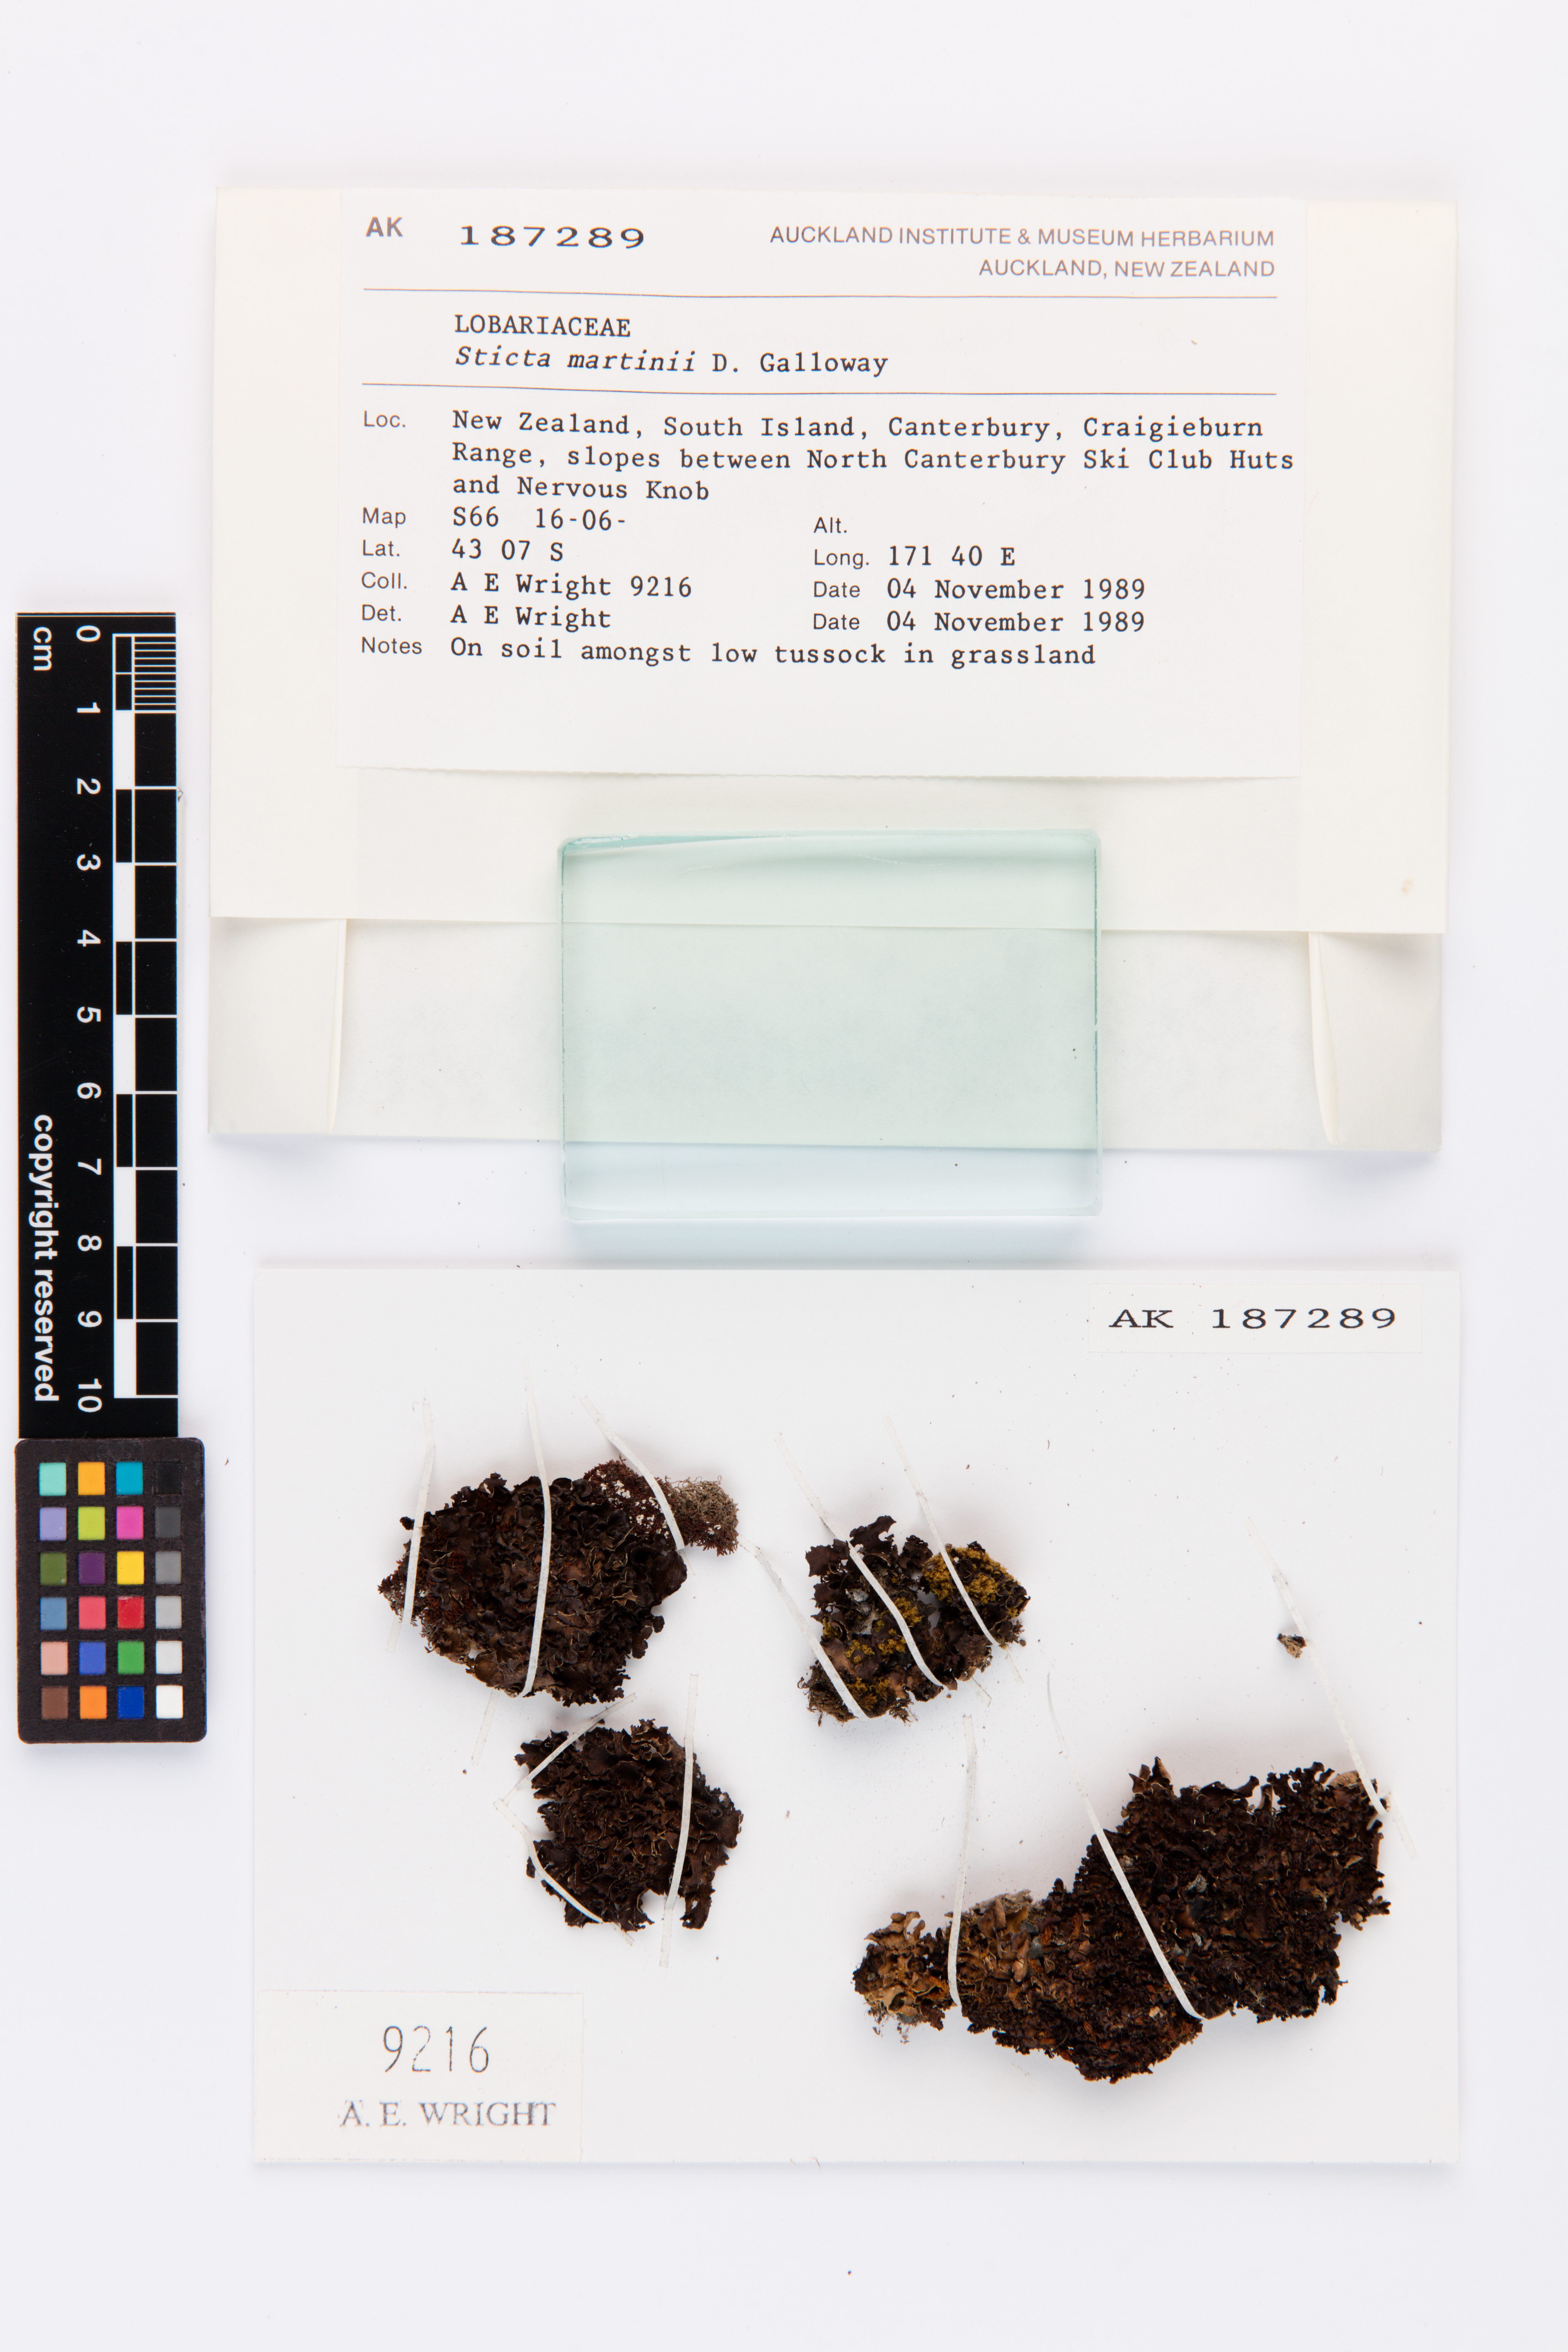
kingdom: Fungi
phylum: Ascomycota
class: Lecanoromycetes
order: Peltigerales
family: Lobariaceae
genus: Sticta
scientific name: Sticta martinii
